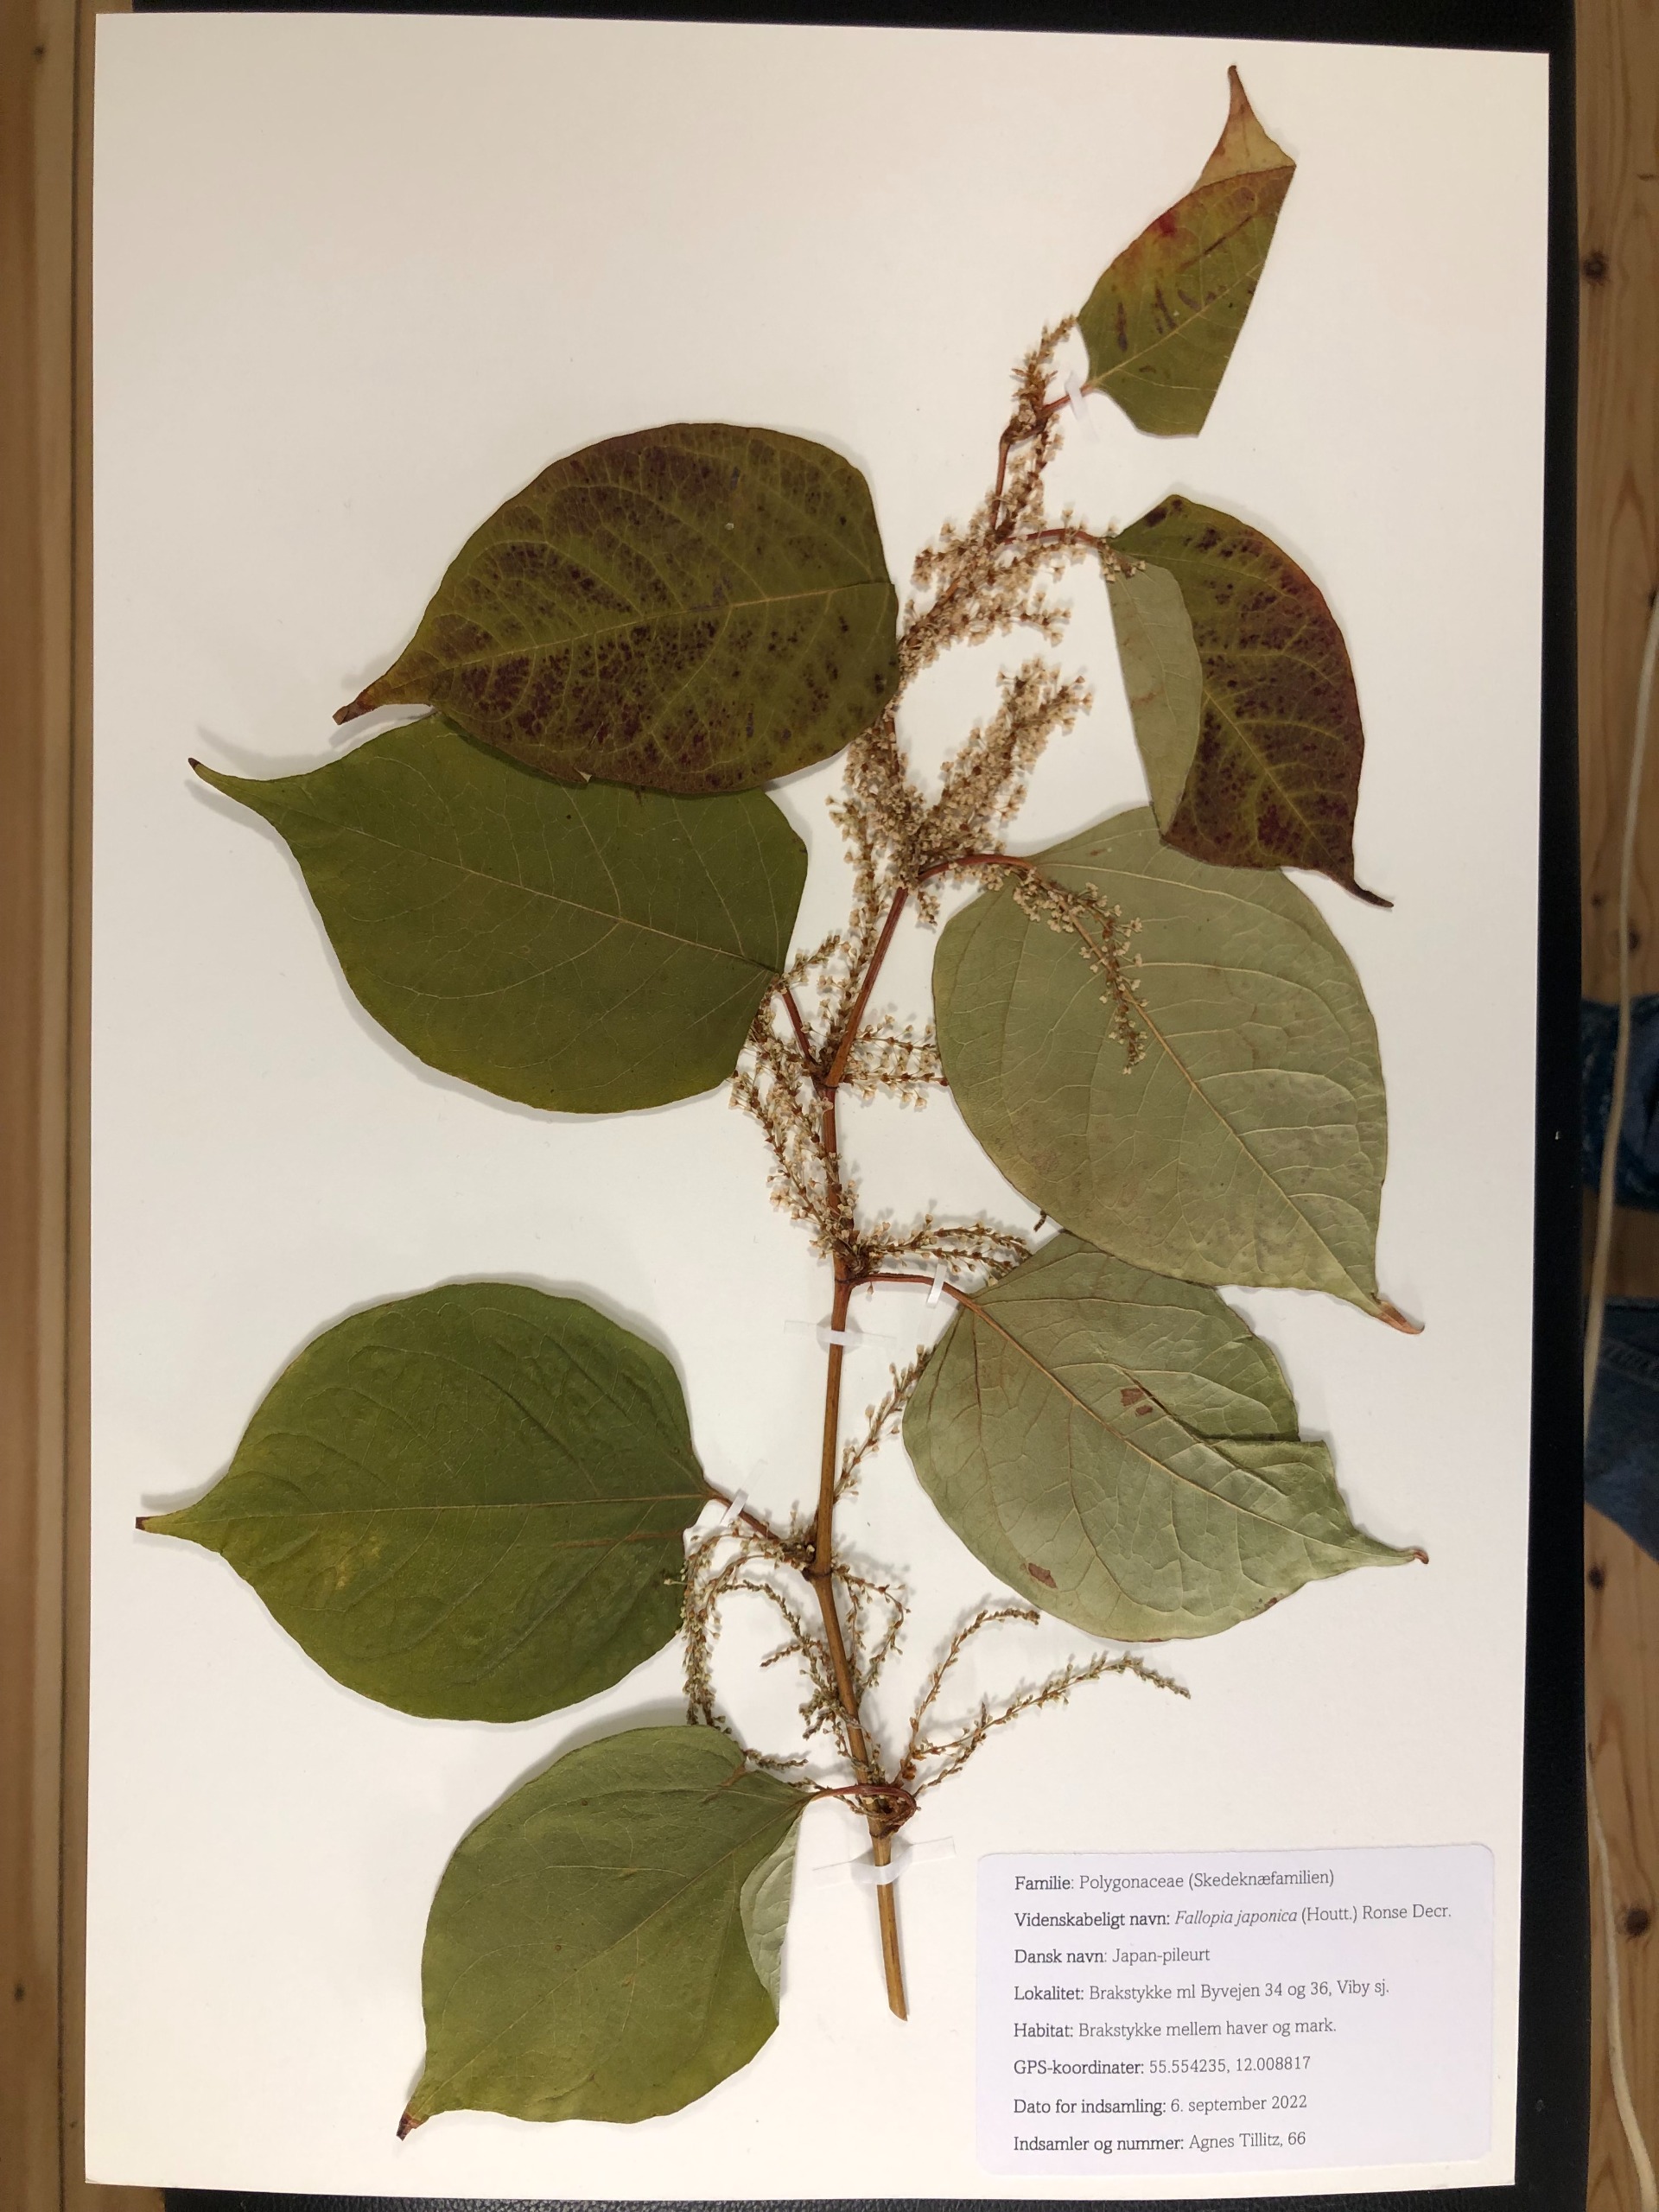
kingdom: Plantae
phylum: Tracheophyta
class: Magnoliopsida
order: Caryophyllales
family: Polygonaceae
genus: Reynoutria
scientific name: Reynoutria japonica
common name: Japan-pileurt
